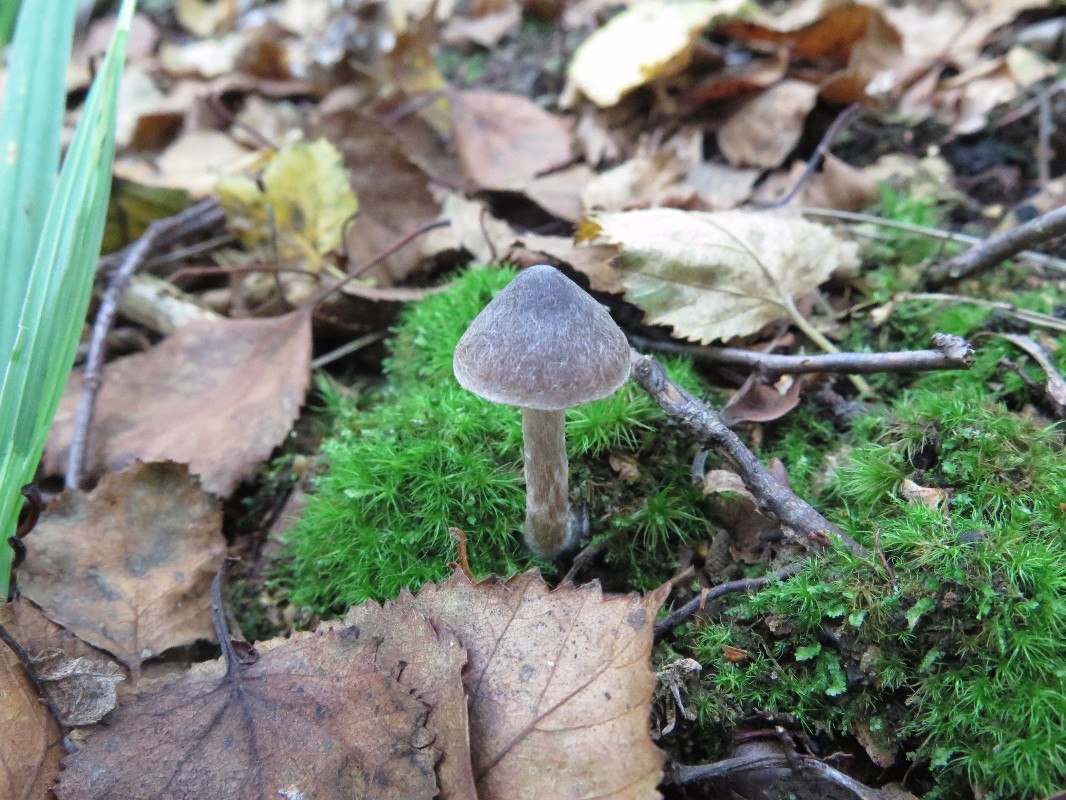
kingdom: Fungi
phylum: Basidiomycota
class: Agaricomycetes
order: Agaricales
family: Cortinariaceae
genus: Cortinarius
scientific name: Cortinarius
